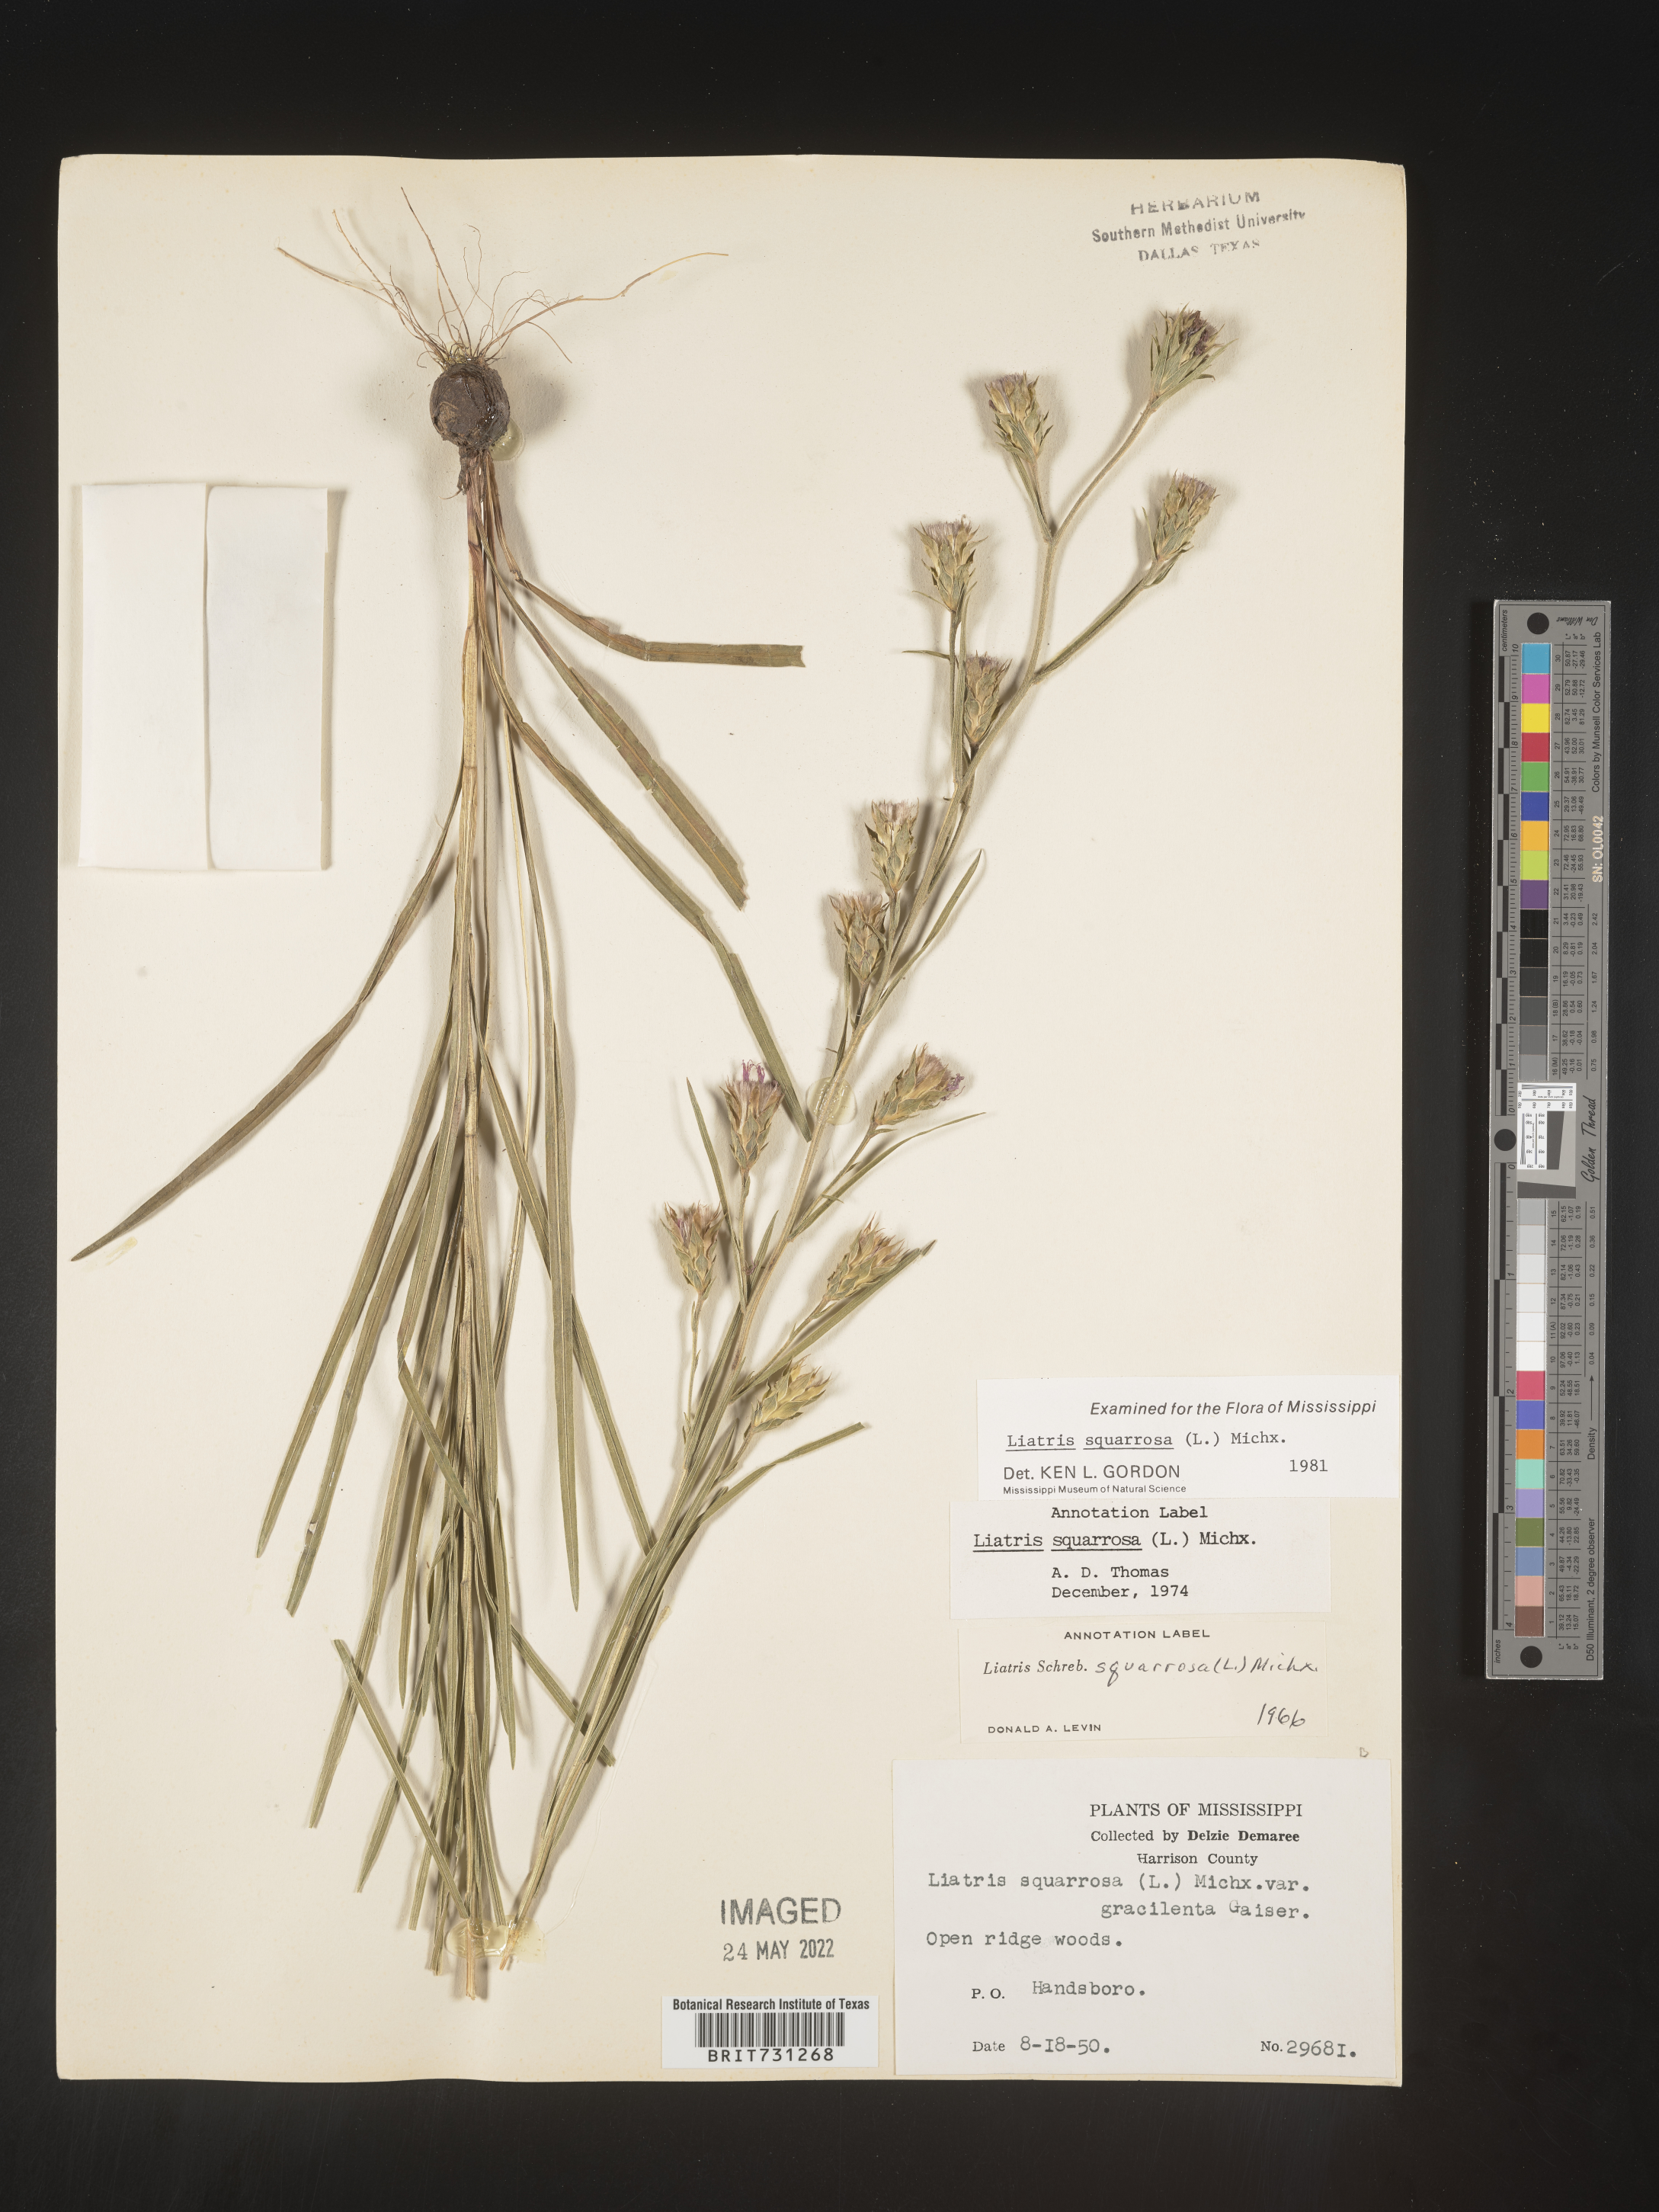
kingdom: Plantae
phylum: Tracheophyta
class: Magnoliopsida
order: Asterales
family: Asteraceae
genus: Liatris
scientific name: Liatris squarrosa
